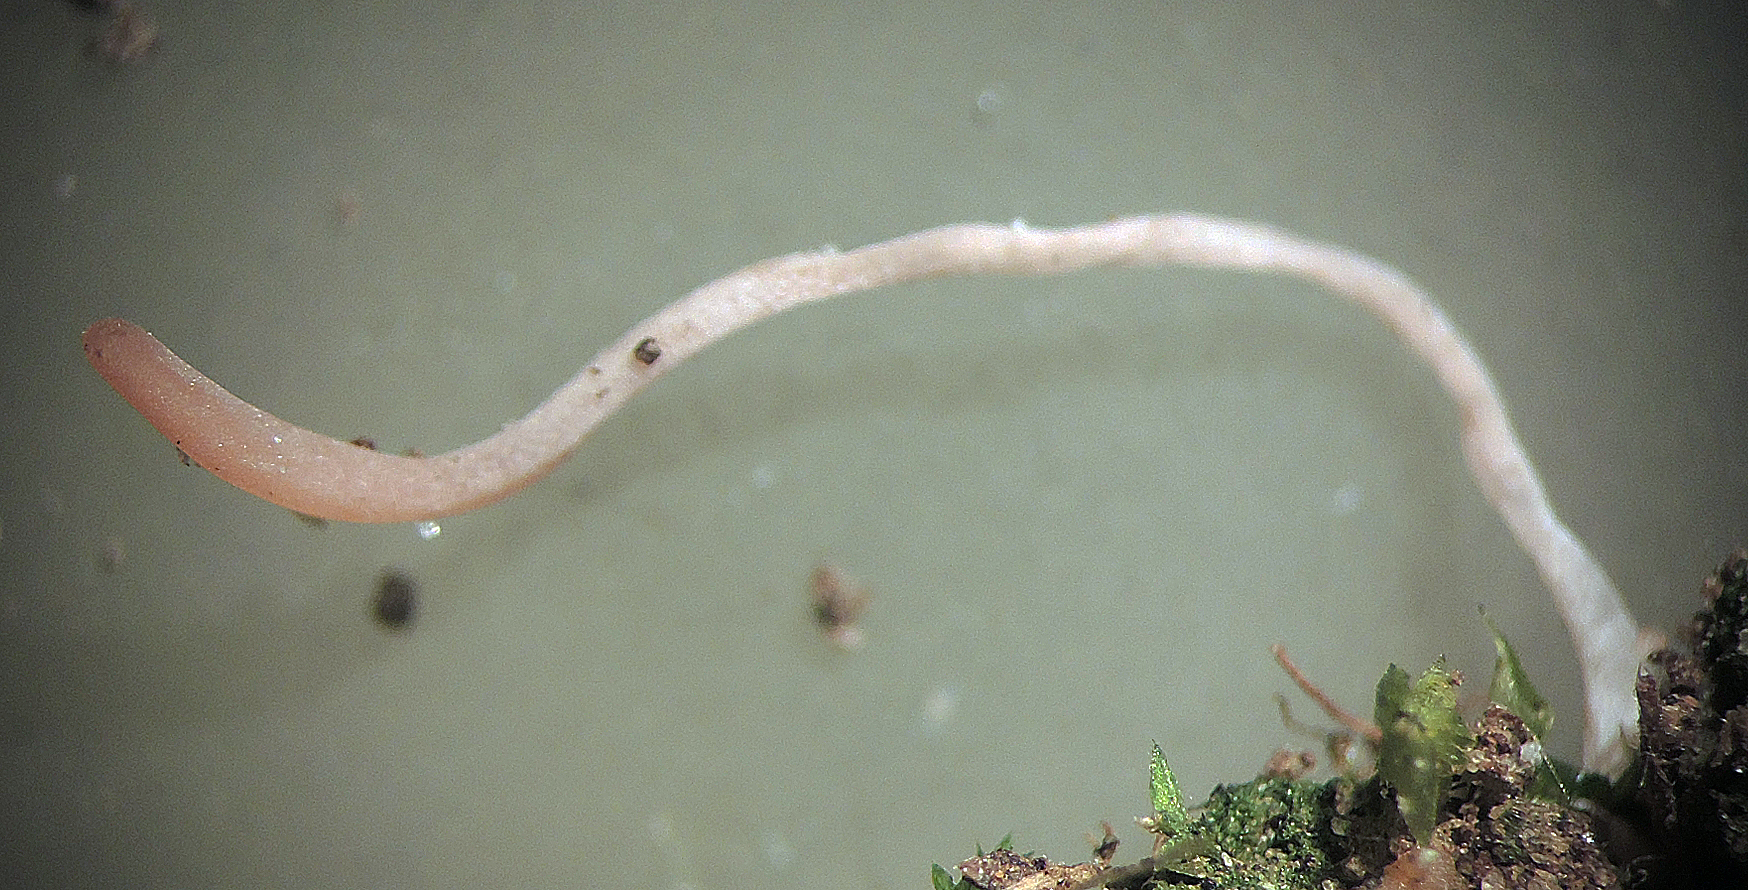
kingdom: Fungi
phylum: Basidiomycota
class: Agaricomycetes
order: Agaricales
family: Clavariaceae
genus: Clavaria
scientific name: Clavaria incarnata
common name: kødrød køllesvamp
